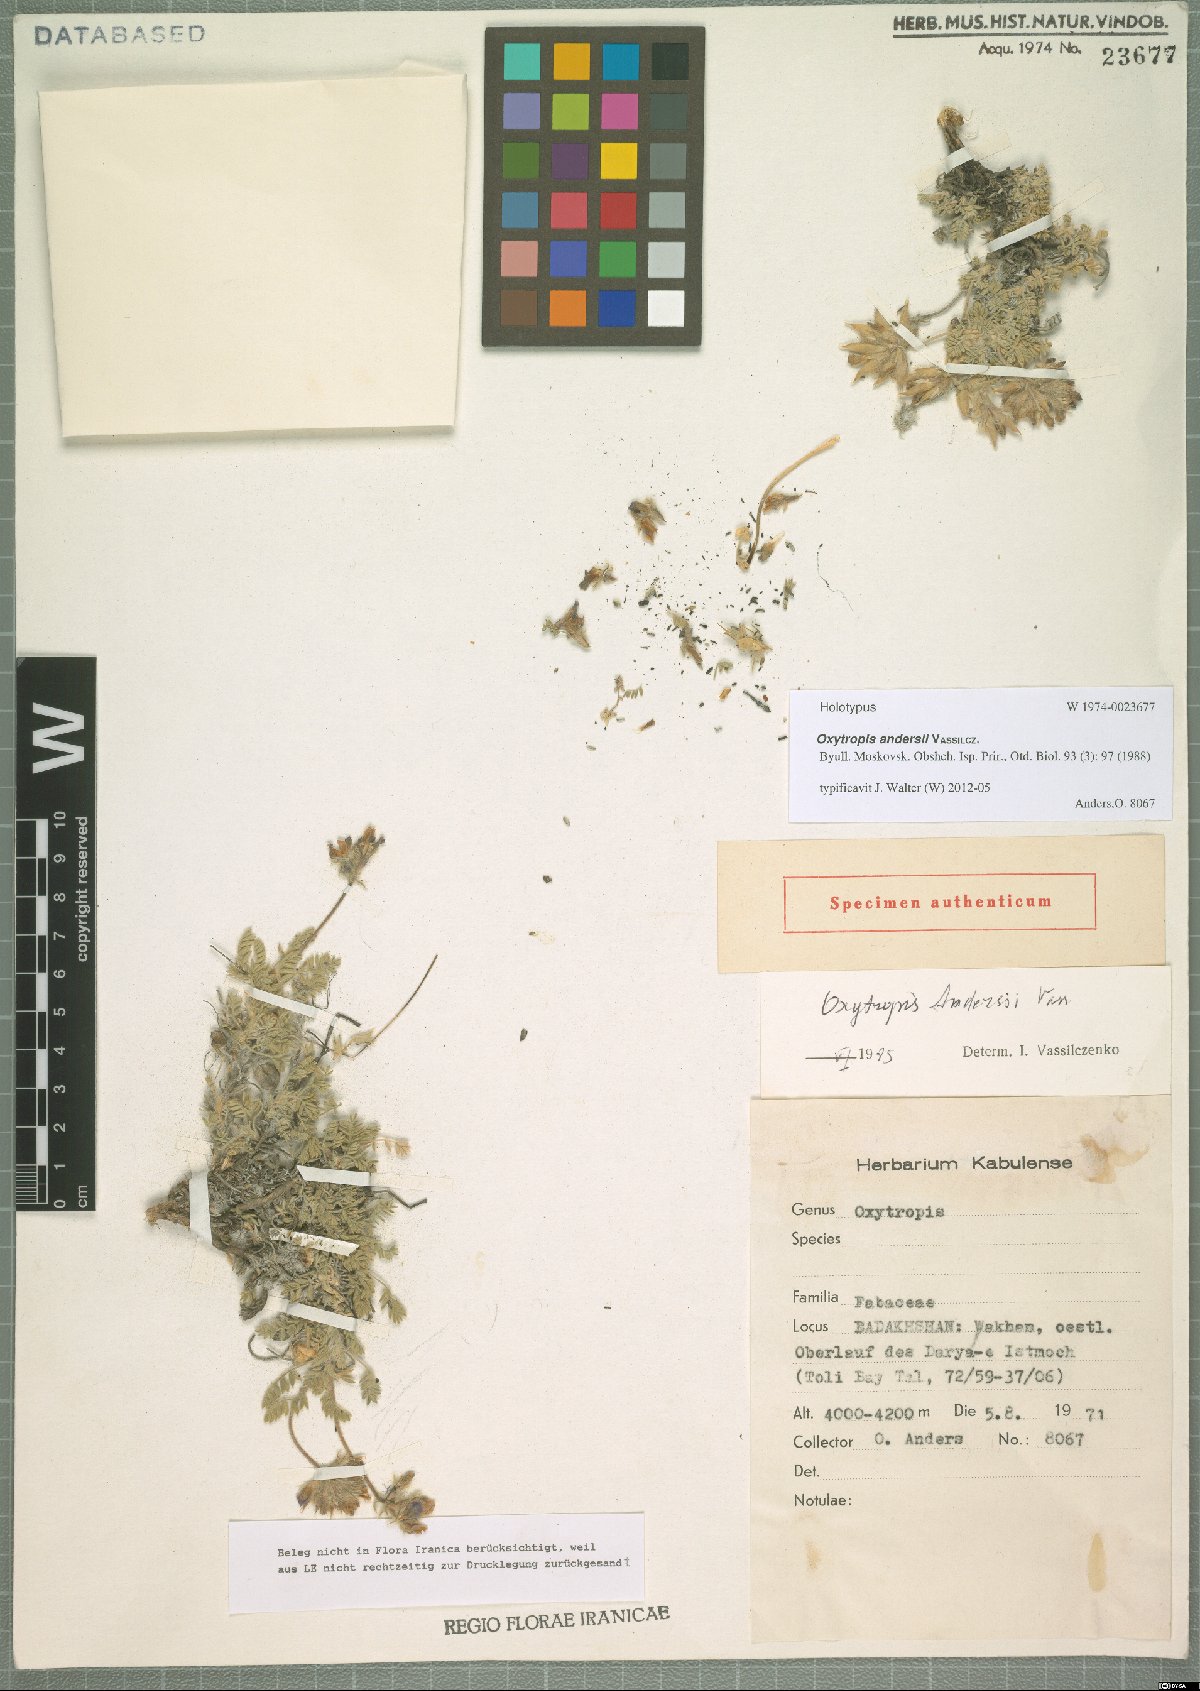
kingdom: Plantae
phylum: Tracheophyta
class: Magnoliopsida
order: Fabales
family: Fabaceae
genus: Oxytropis
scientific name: Oxytropis andersii
